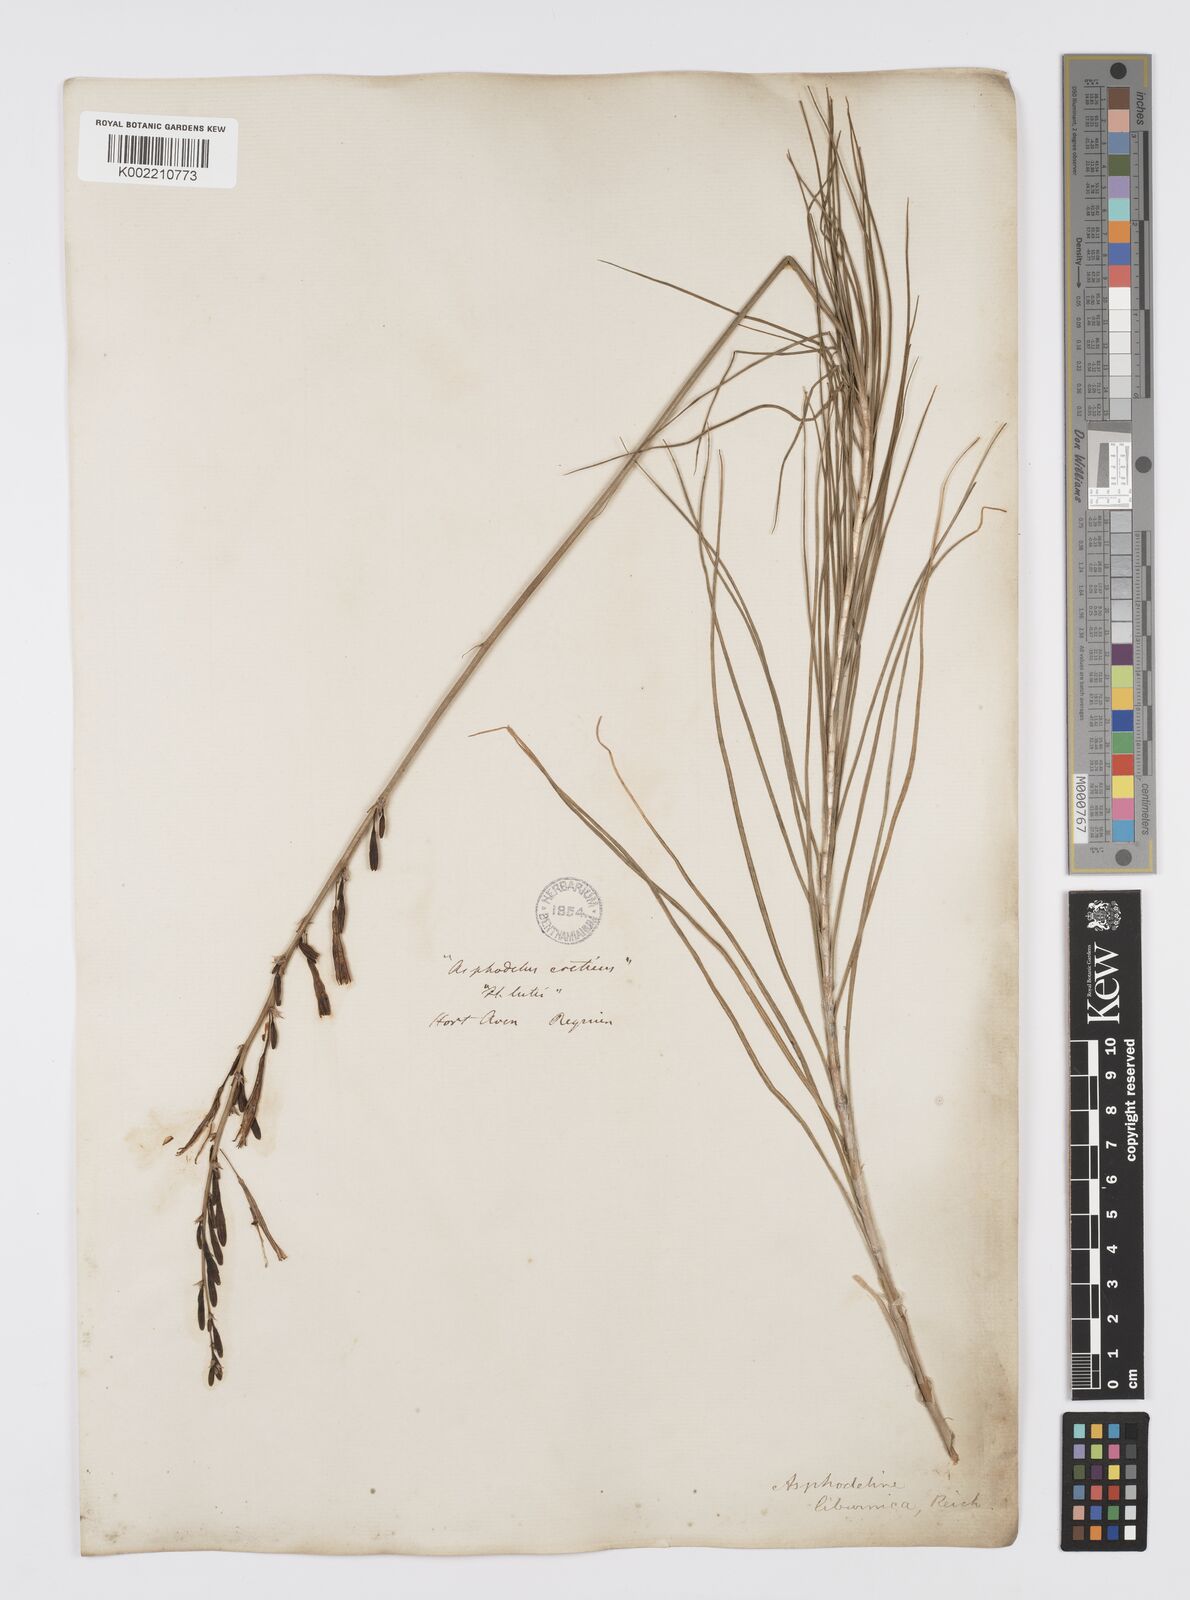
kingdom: Plantae
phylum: Tracheophyta
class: Liliopsida
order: Asparagales
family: Asphodelaceae
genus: Asphodeline
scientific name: Asphodeline liburnica
